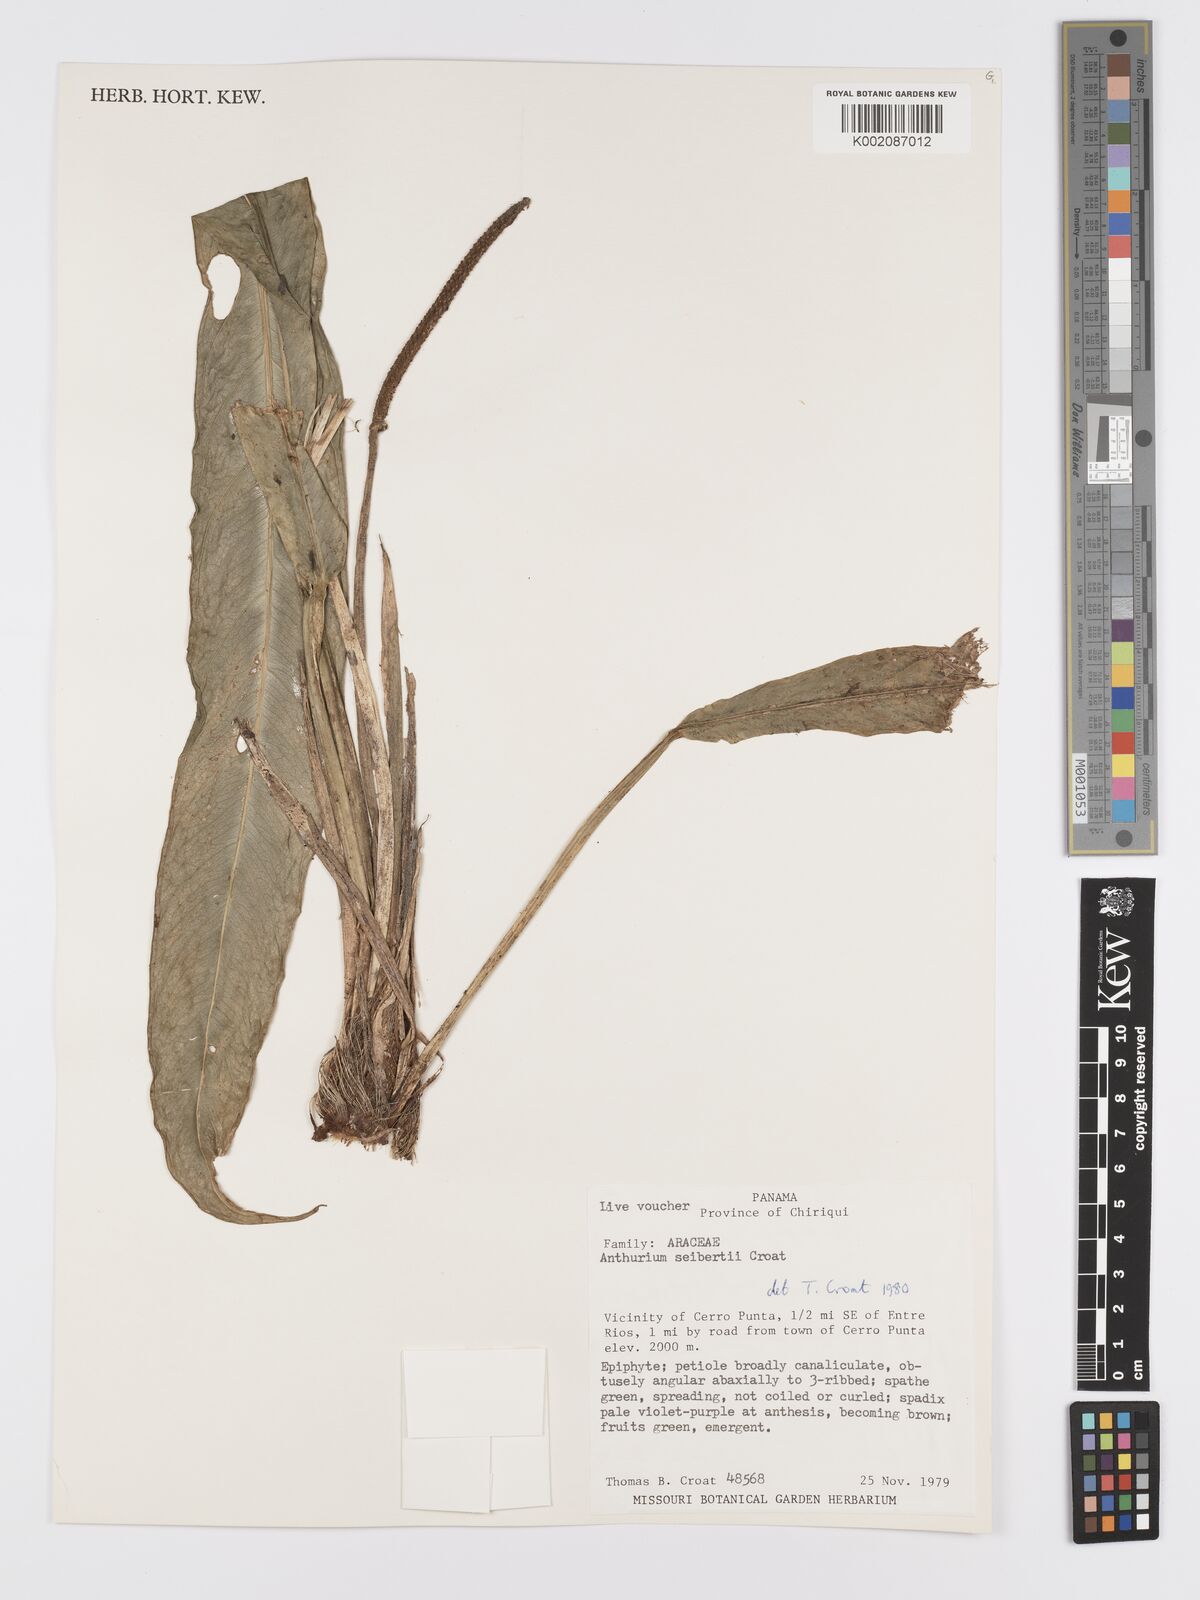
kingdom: Plantae
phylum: Tracheophyta
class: Liliopsida
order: Alismatales
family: Araceae
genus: Anthurium
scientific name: Anthurium seibertii
